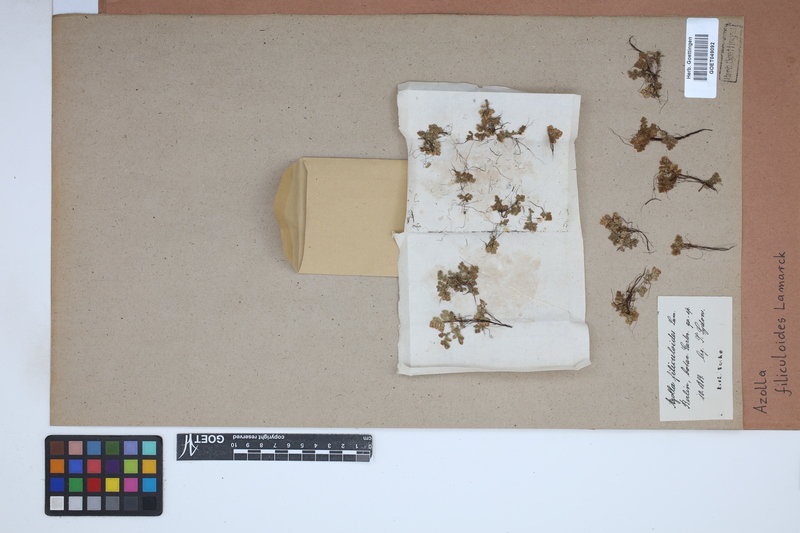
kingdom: Plantae
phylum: Tracheophyta
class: Polypodiopsida
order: Salviniales
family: Salviniaceae
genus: Azolla
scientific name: Azolla filiculoides
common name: Water fern
